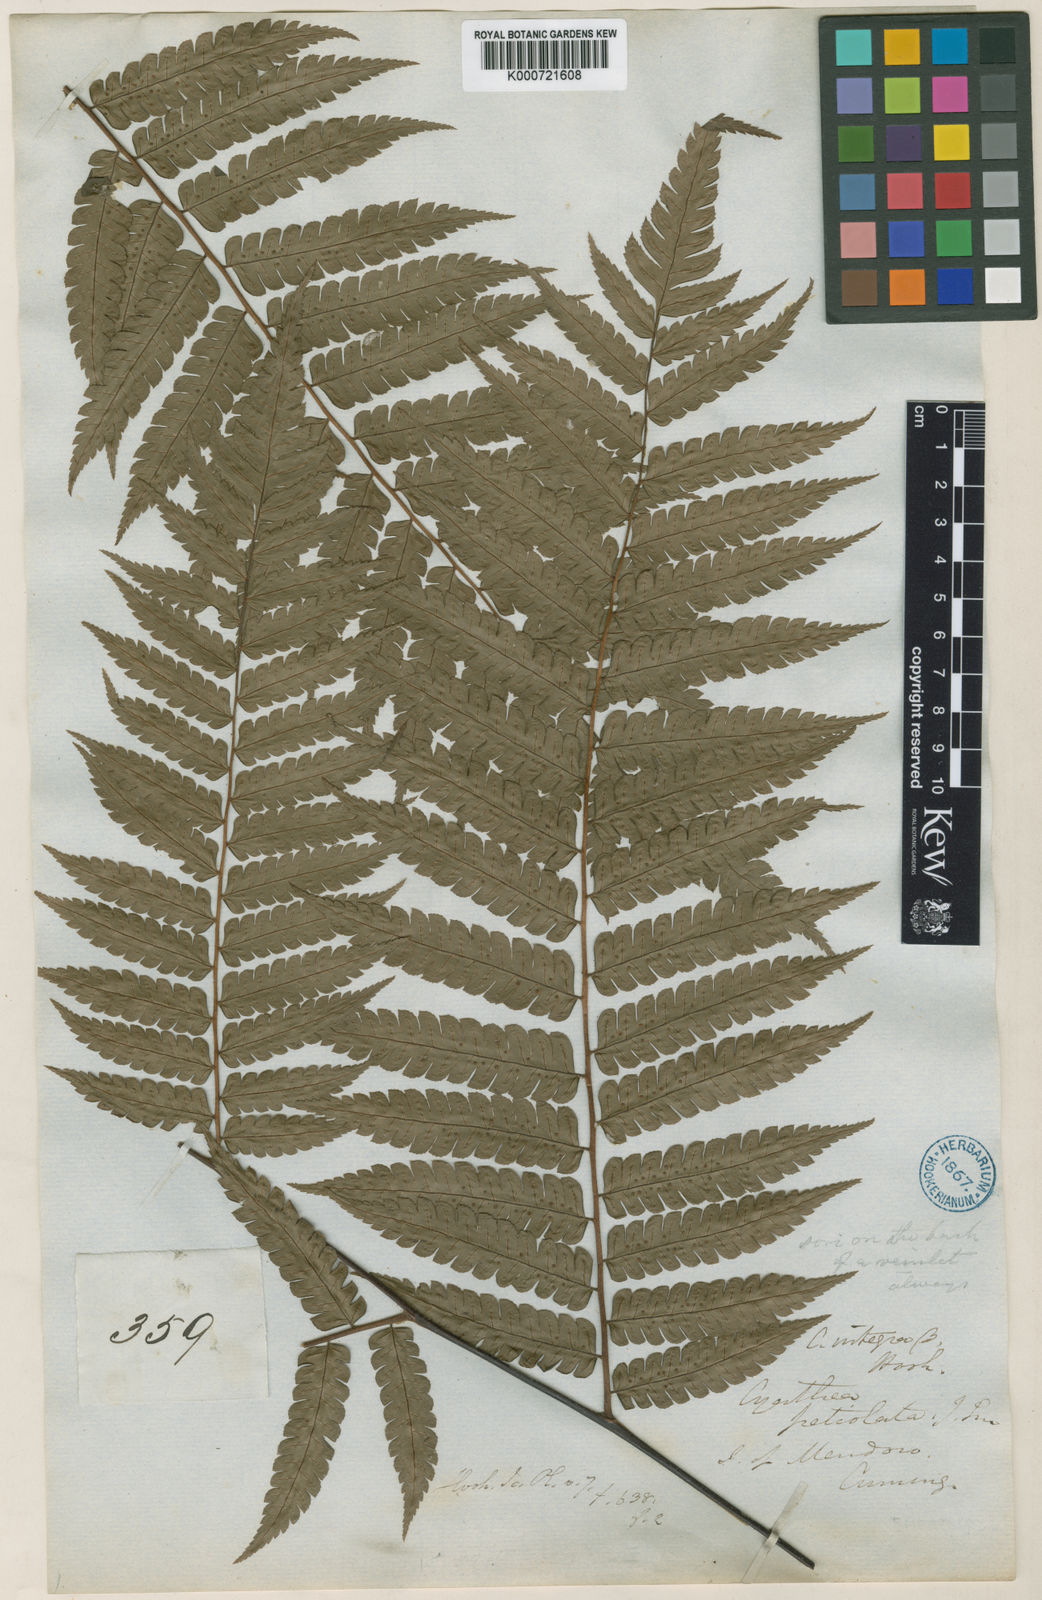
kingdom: Plantae
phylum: Tracheophyta
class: Polypodiopsida
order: Cyatheales
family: Cyatheaceae
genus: Sphaeropteris
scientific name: Sphaeropteris integra
